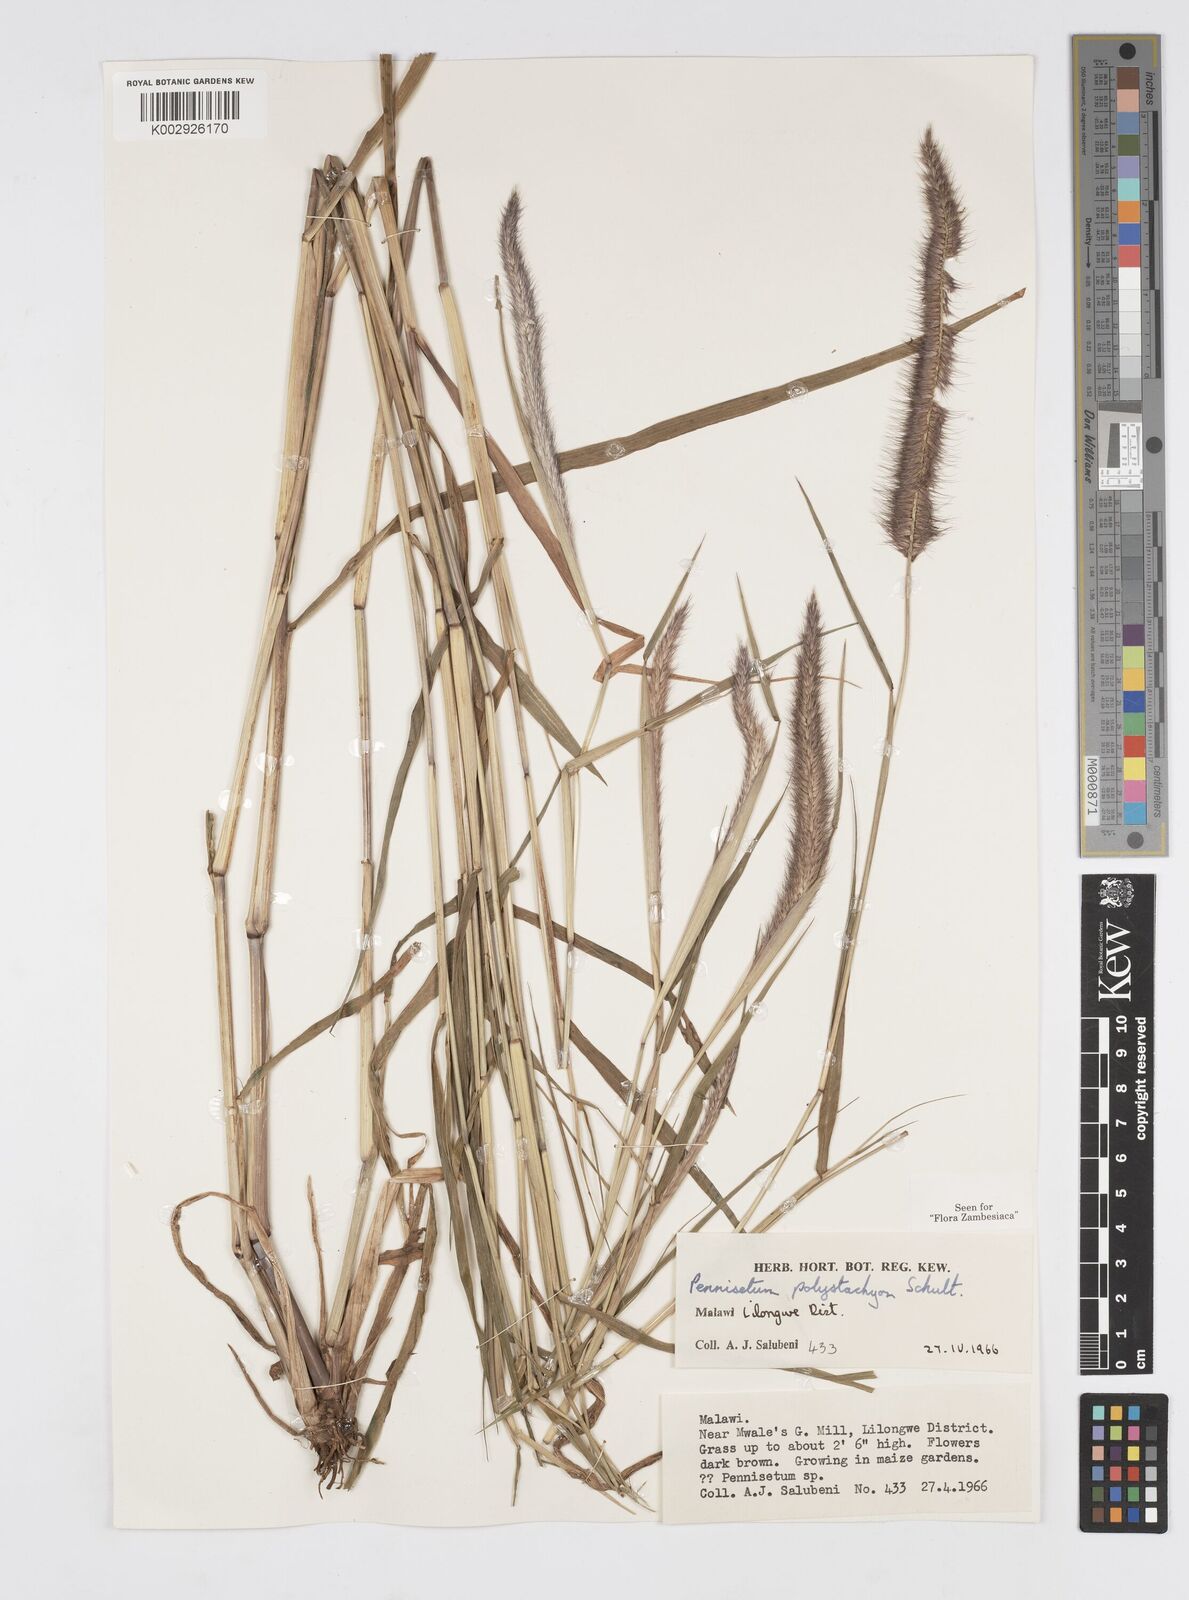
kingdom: Plantae
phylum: Tracheophyta
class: Liliopsida
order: Poales
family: Poaceae
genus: Setaria
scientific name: Setaria parviflora
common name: Knotroot bristle-grass
